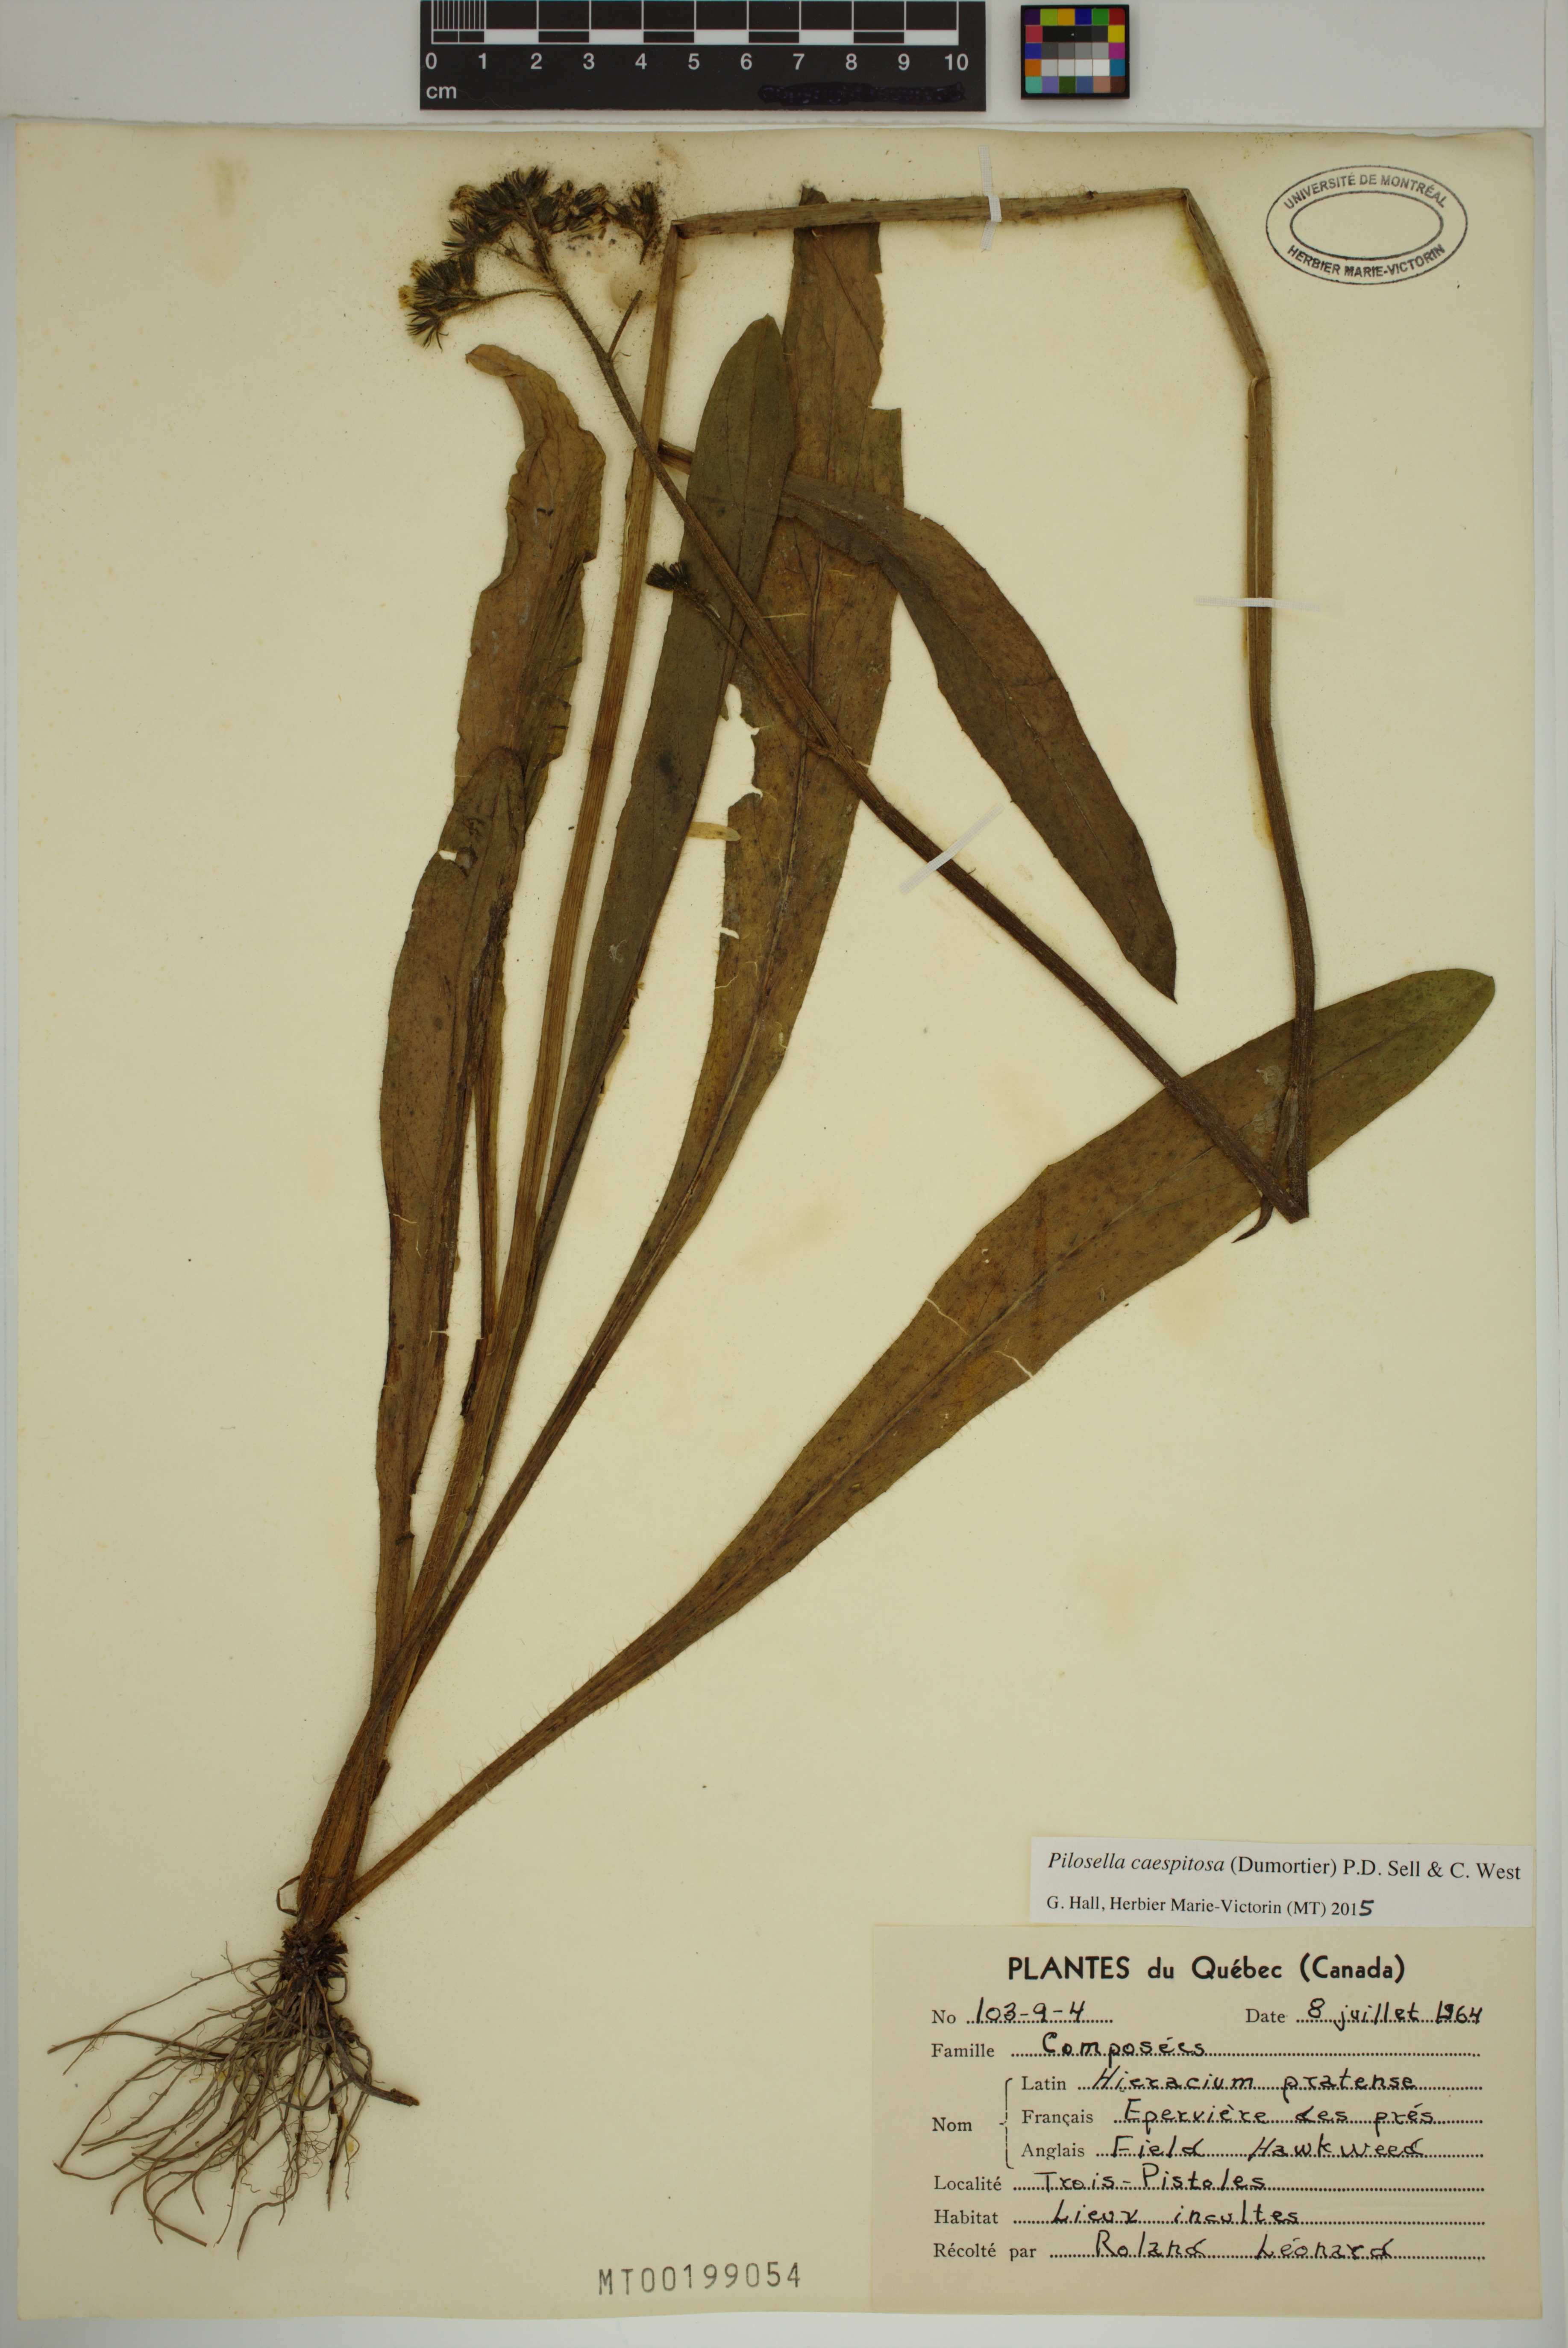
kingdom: Plantae
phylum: Tracheophyta
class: Magnoliopsida
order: Asterales
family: Asteraceae
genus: Pilosella
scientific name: Pilosella caespitosa
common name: Yellow fox-and-cubs
